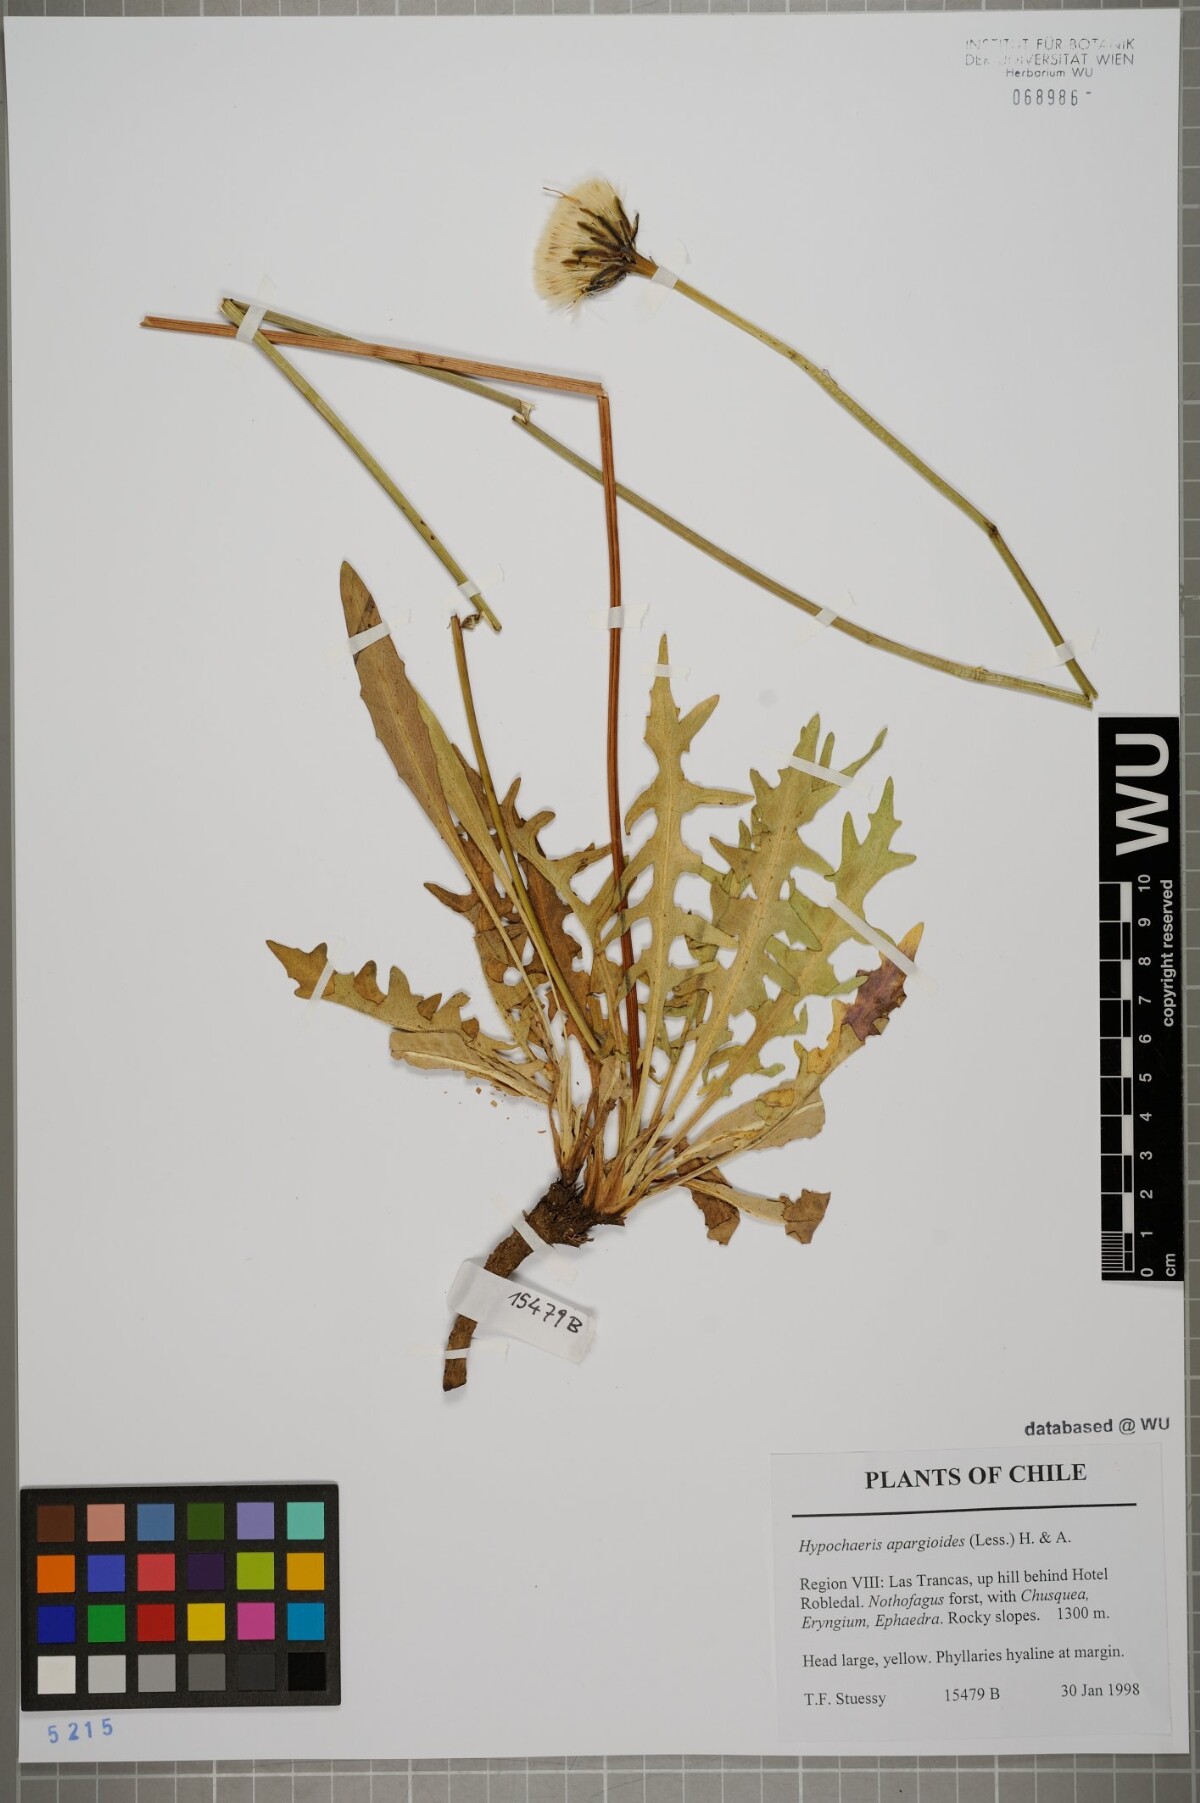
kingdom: Plantae
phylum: Tracheophyta
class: Magnoliopsida
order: Asterales
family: Asteraceae
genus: Hypochaeris
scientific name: Hypochaeris apargioides
